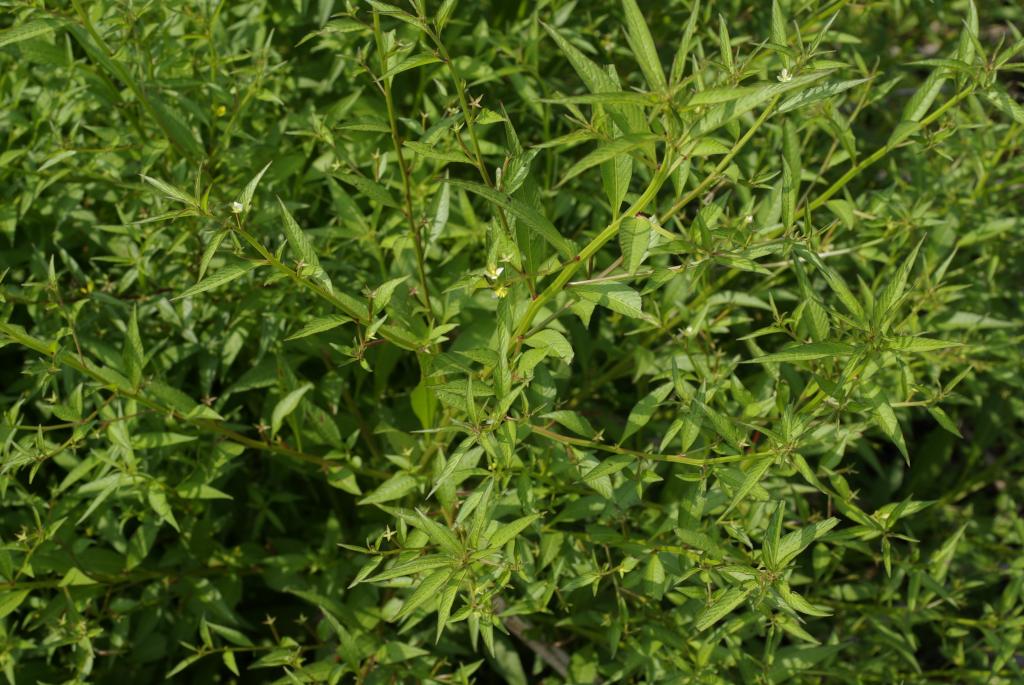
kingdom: Plantae
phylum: Tracheophyta
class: Magnoliopsida
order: Myrtales
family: Onagraceae
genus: Ludwigia
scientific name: Ludwigia epilobioides
